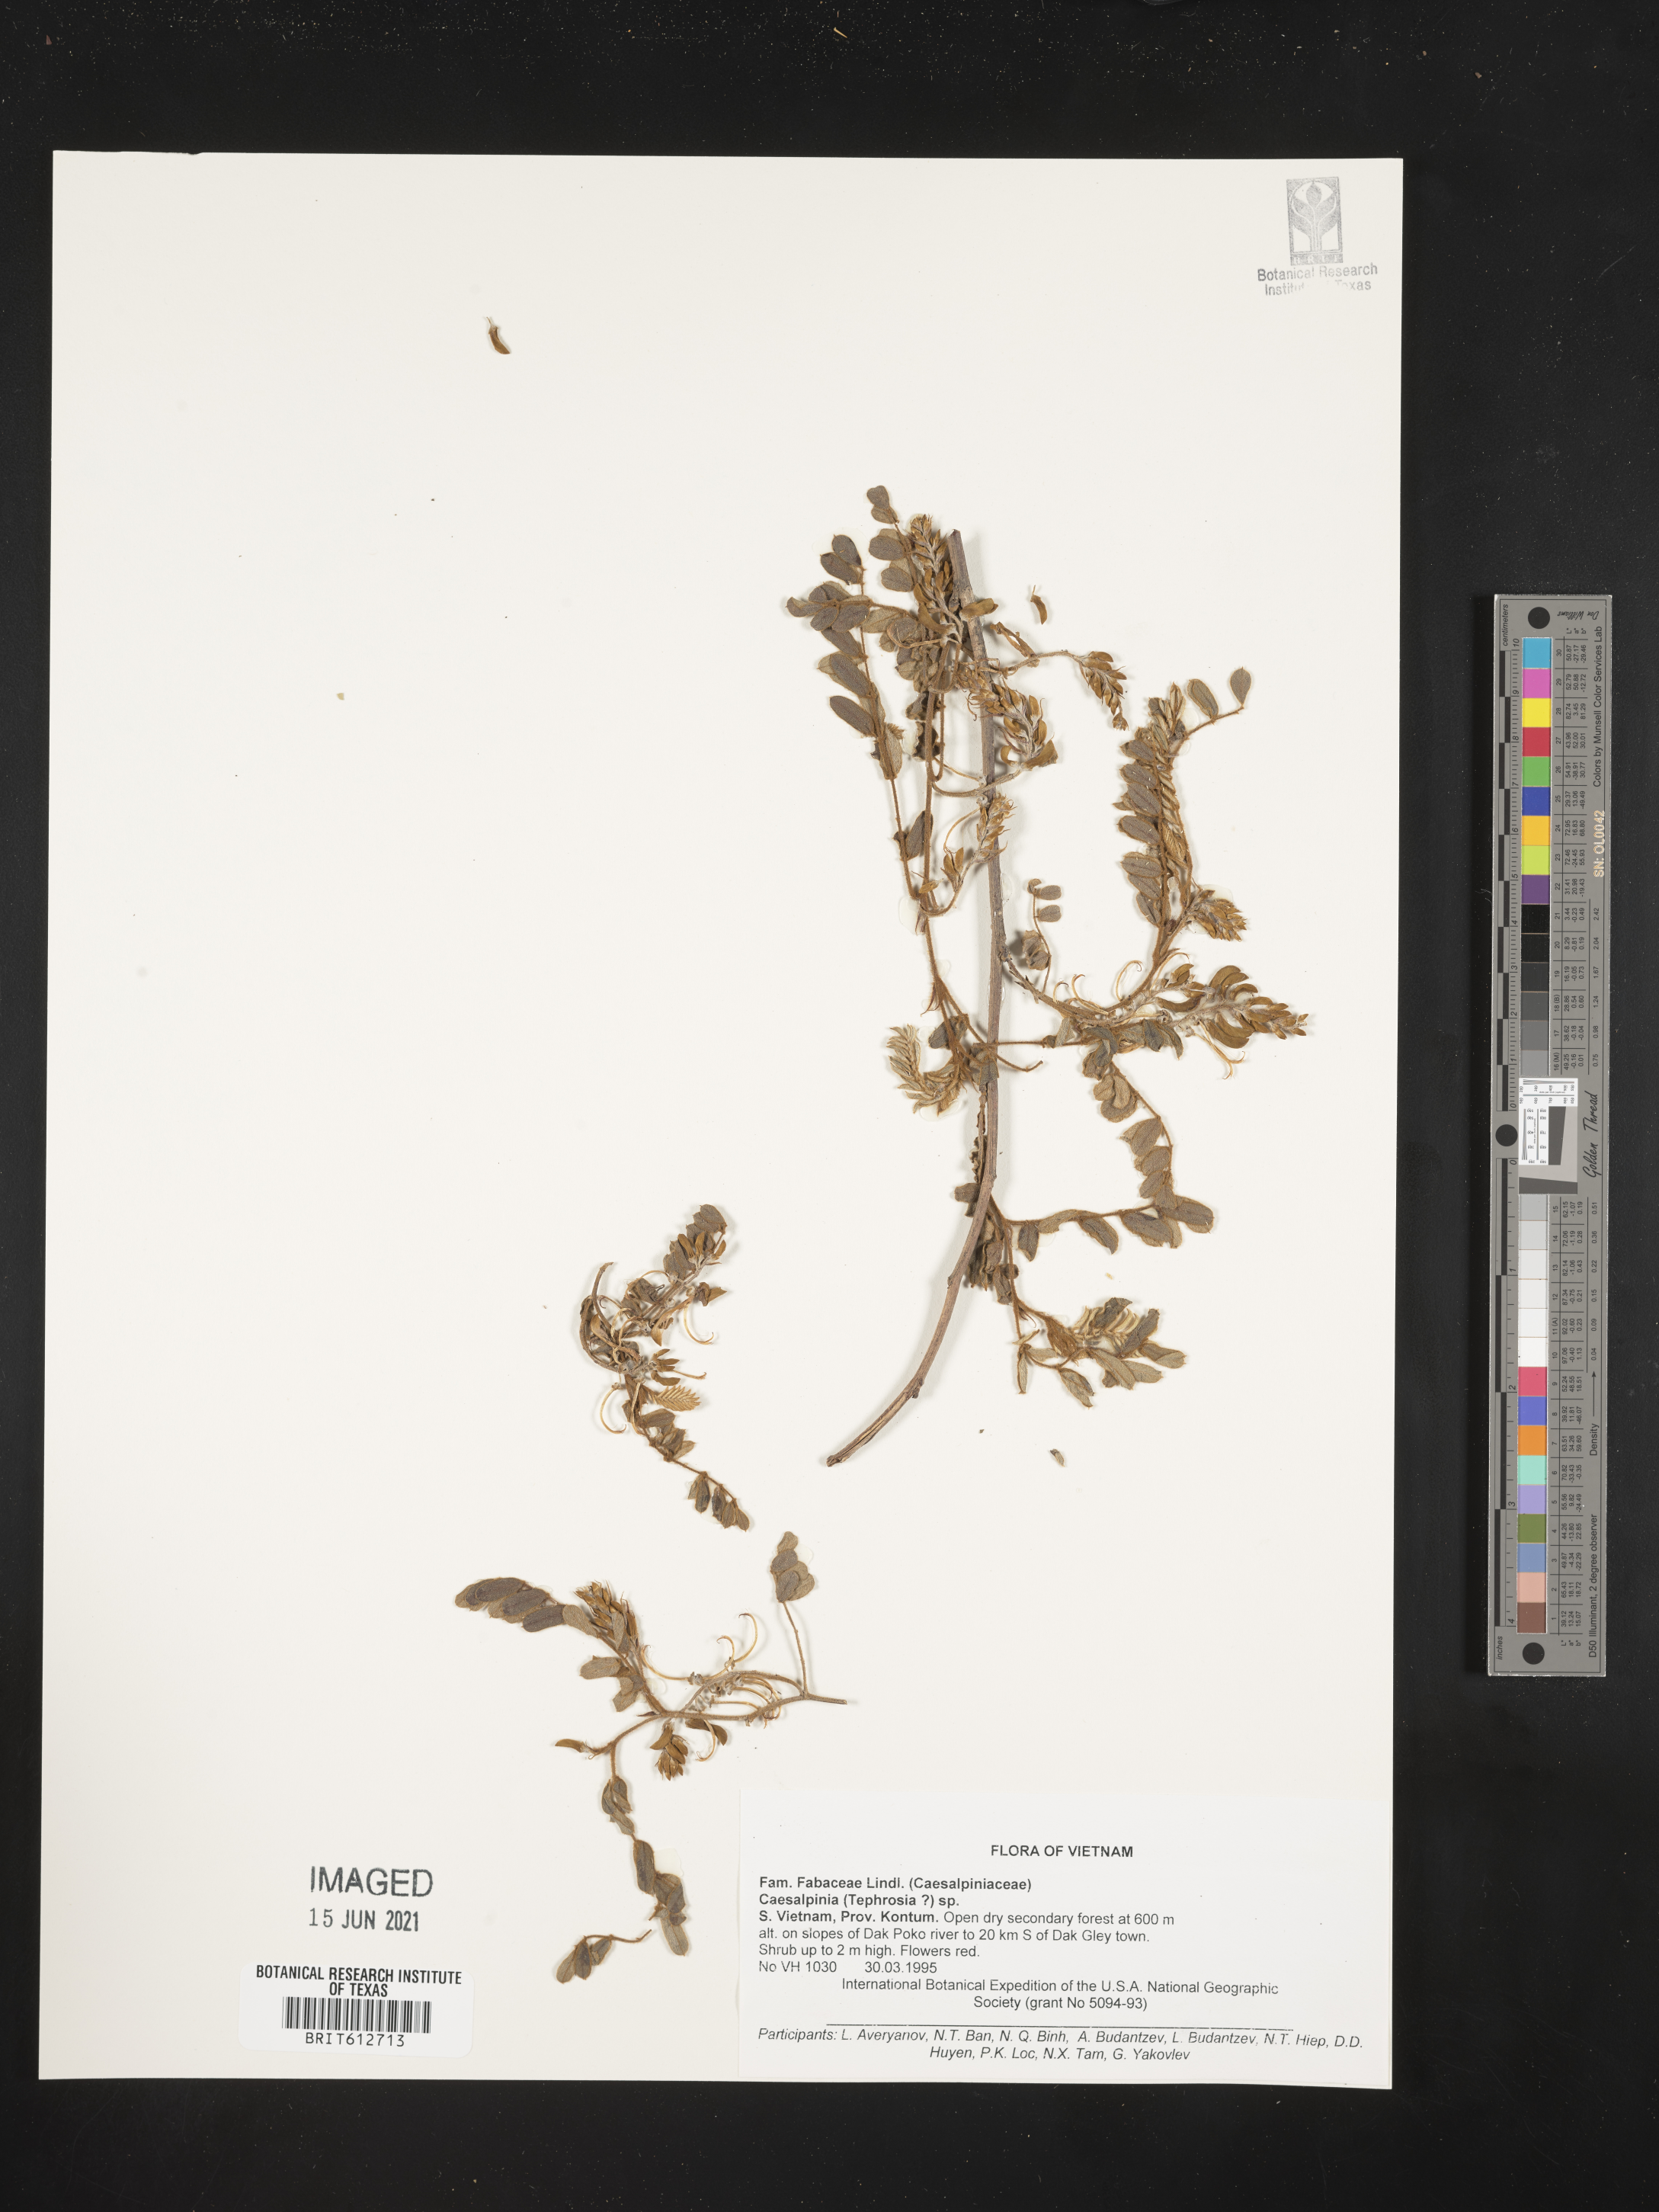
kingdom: Plantae
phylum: Tracheophyta
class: Magnoliopsida
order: Fabales
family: Fabaceae
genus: Caesalpinia
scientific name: Caesalpinia
